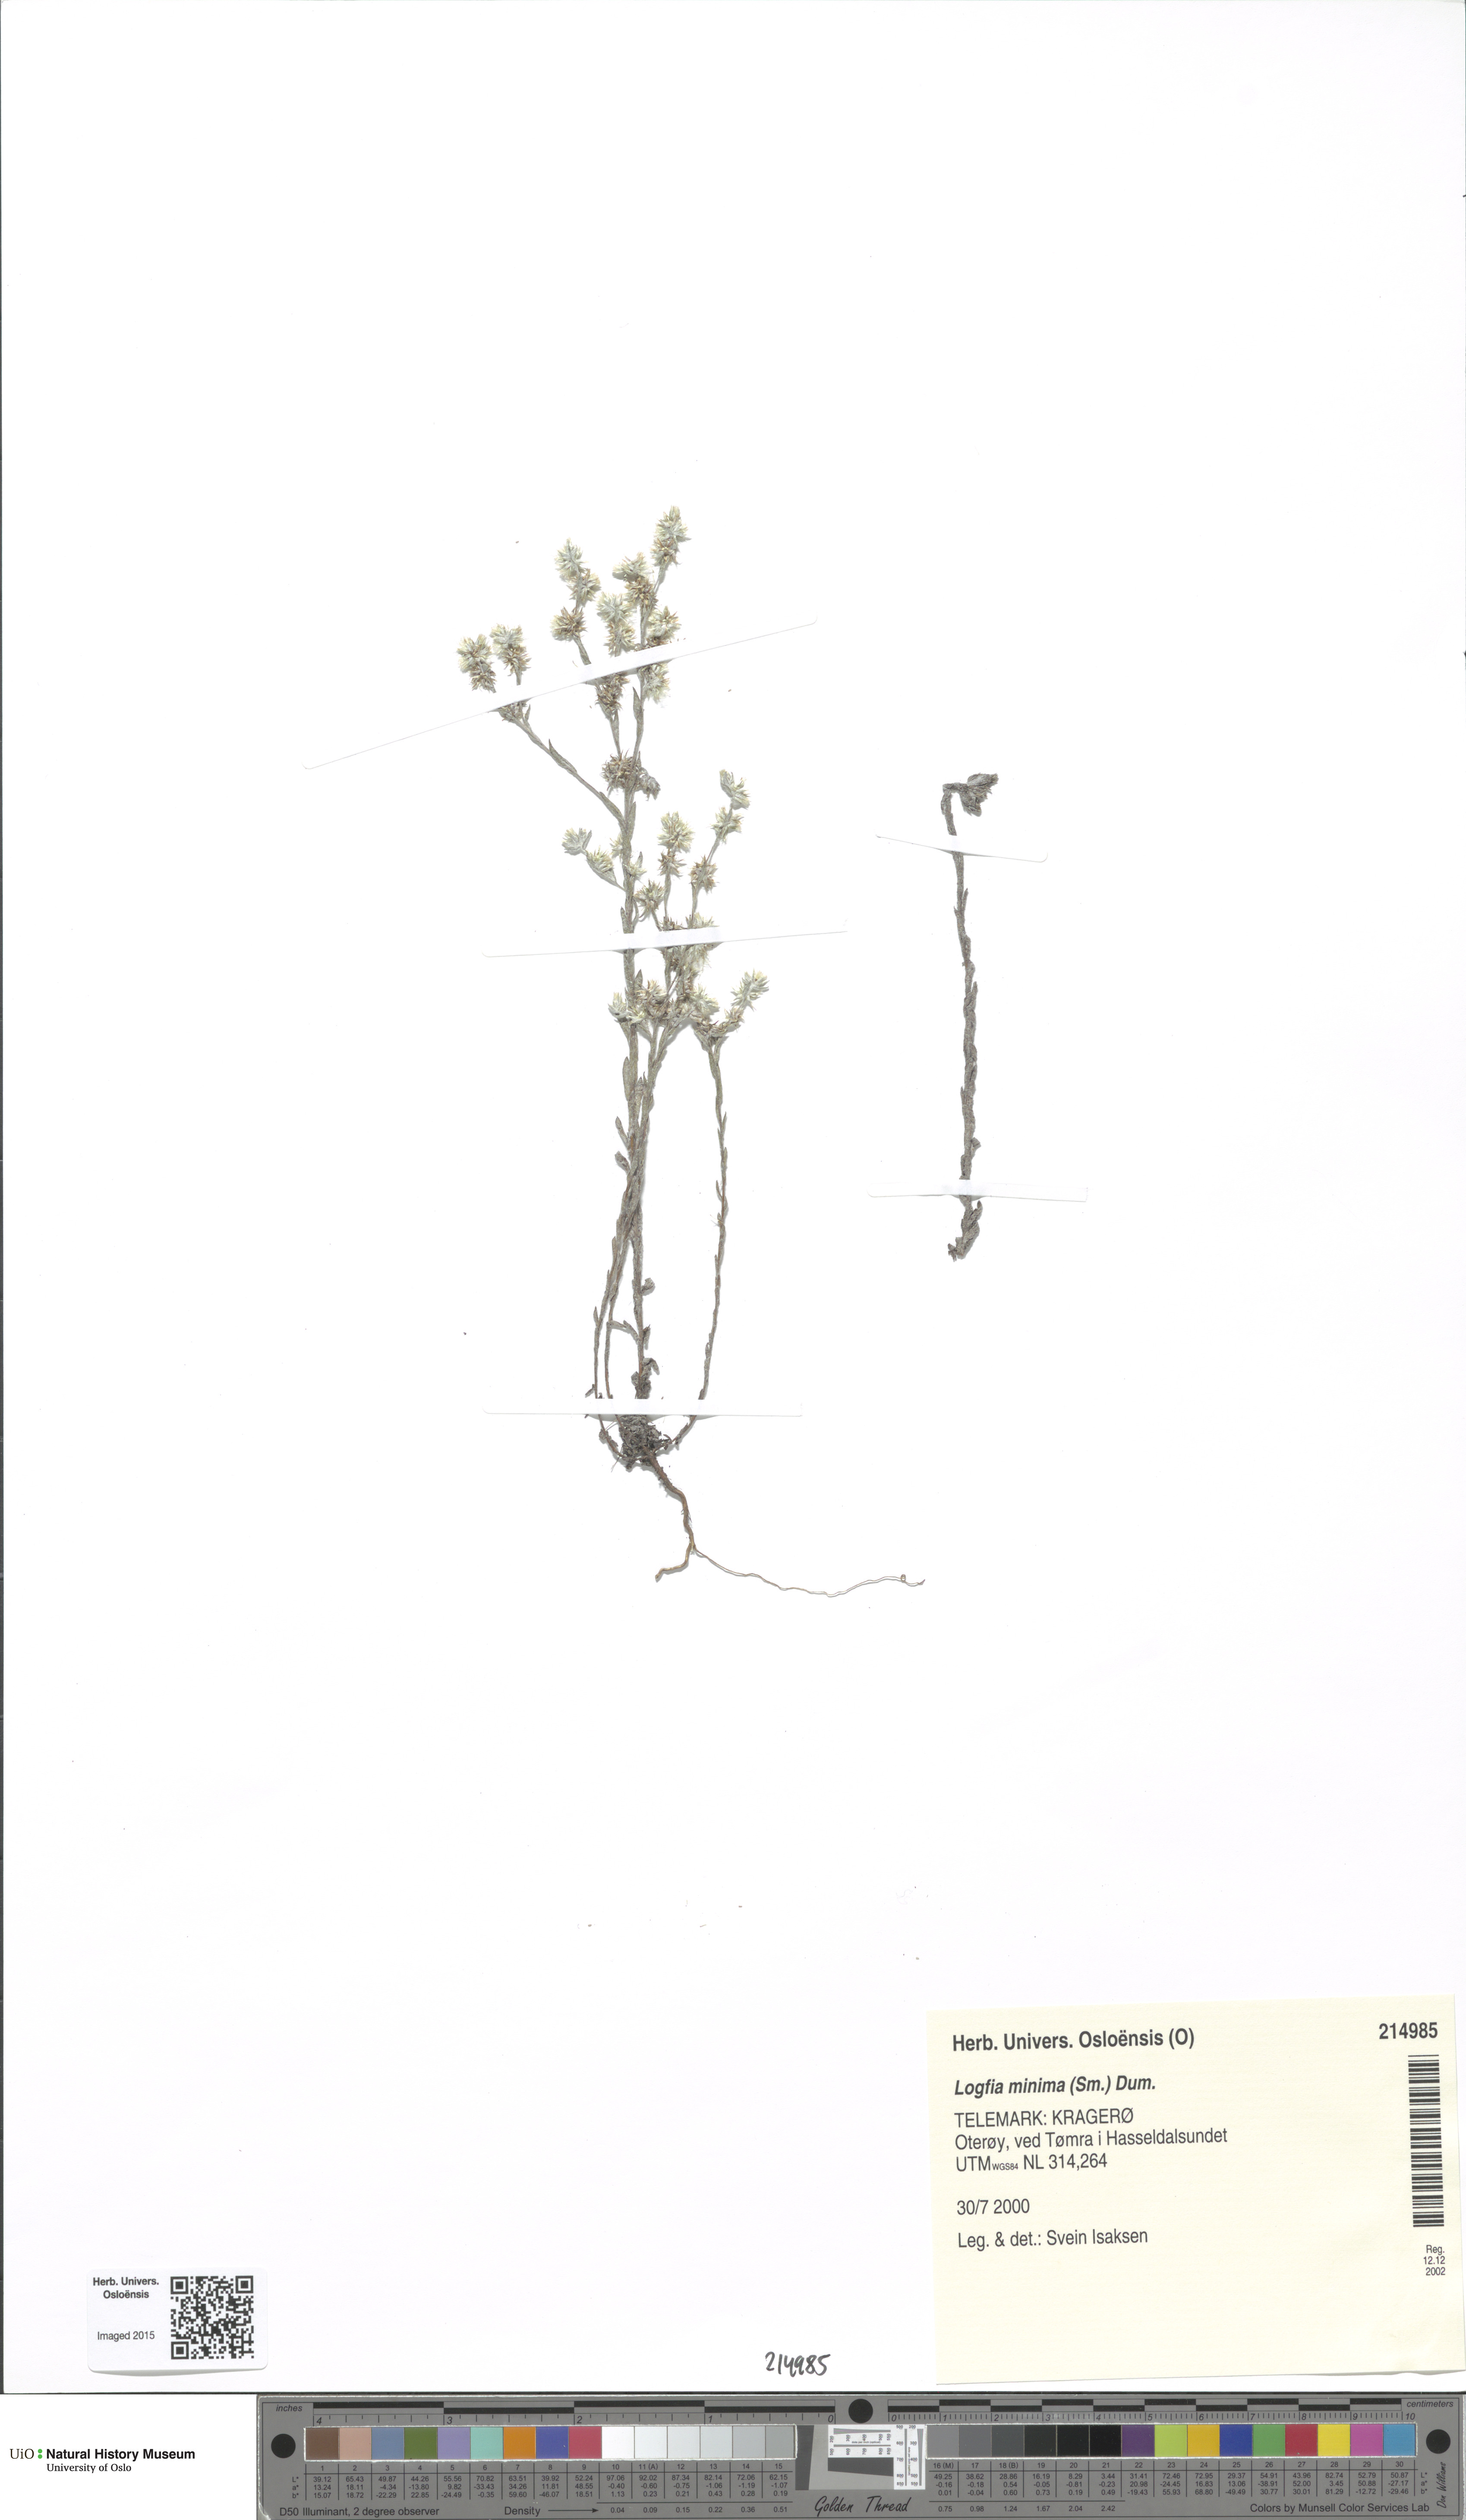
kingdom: Plantae
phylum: Tracheophyta
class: Magnoliopsida
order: Asterales
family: Asteraceae
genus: Logfia
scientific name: Logfia minima
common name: Little cottonrose
